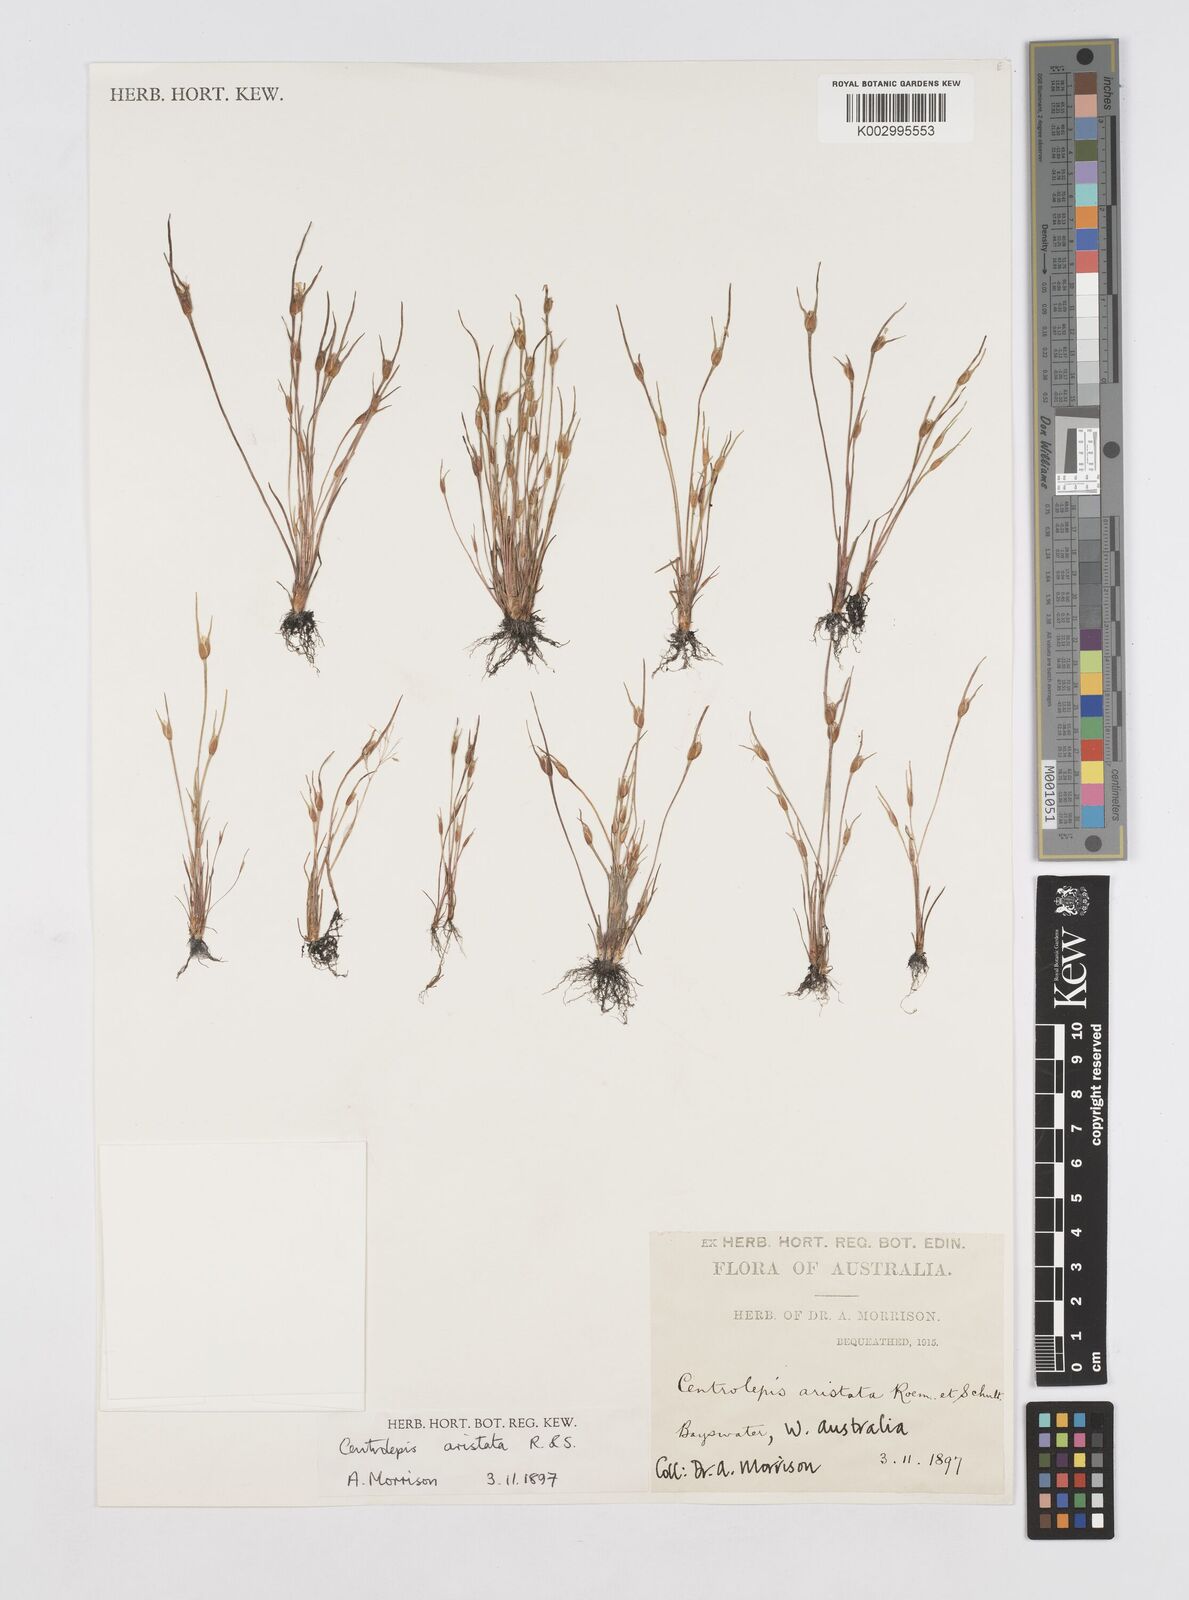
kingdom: Plantae
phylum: Tracheophyta
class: Liliopsida
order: Poales
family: Restionaceae
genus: Centrolepis
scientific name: Centrolepis aristata
